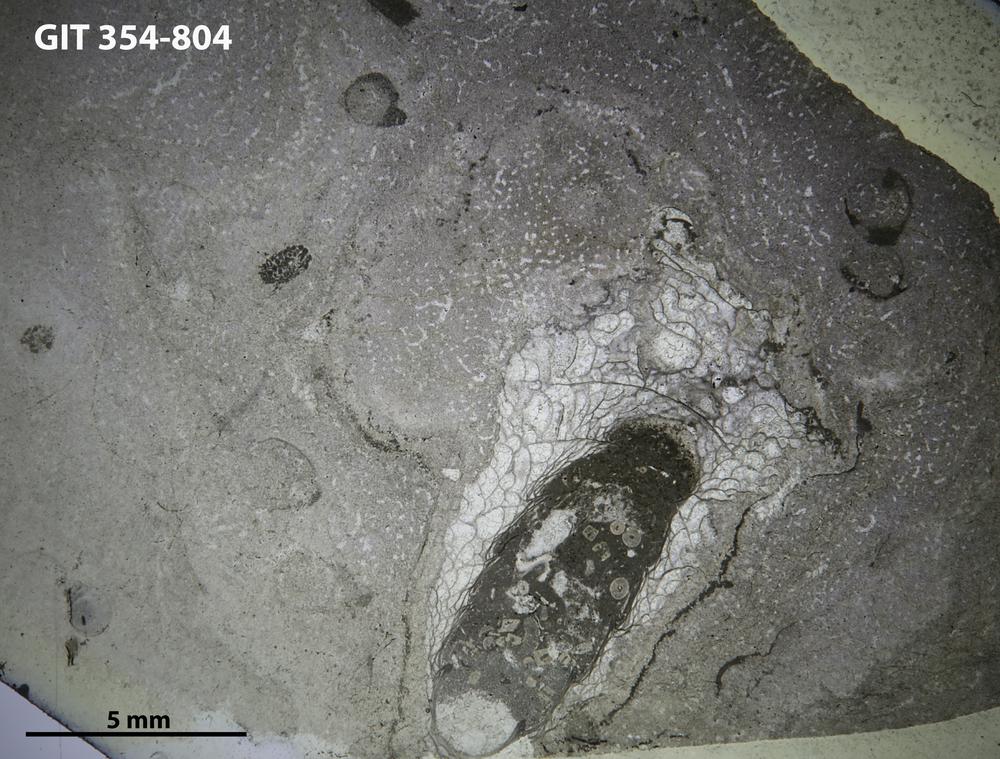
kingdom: Animalia
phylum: Porifera
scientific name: Porifera
